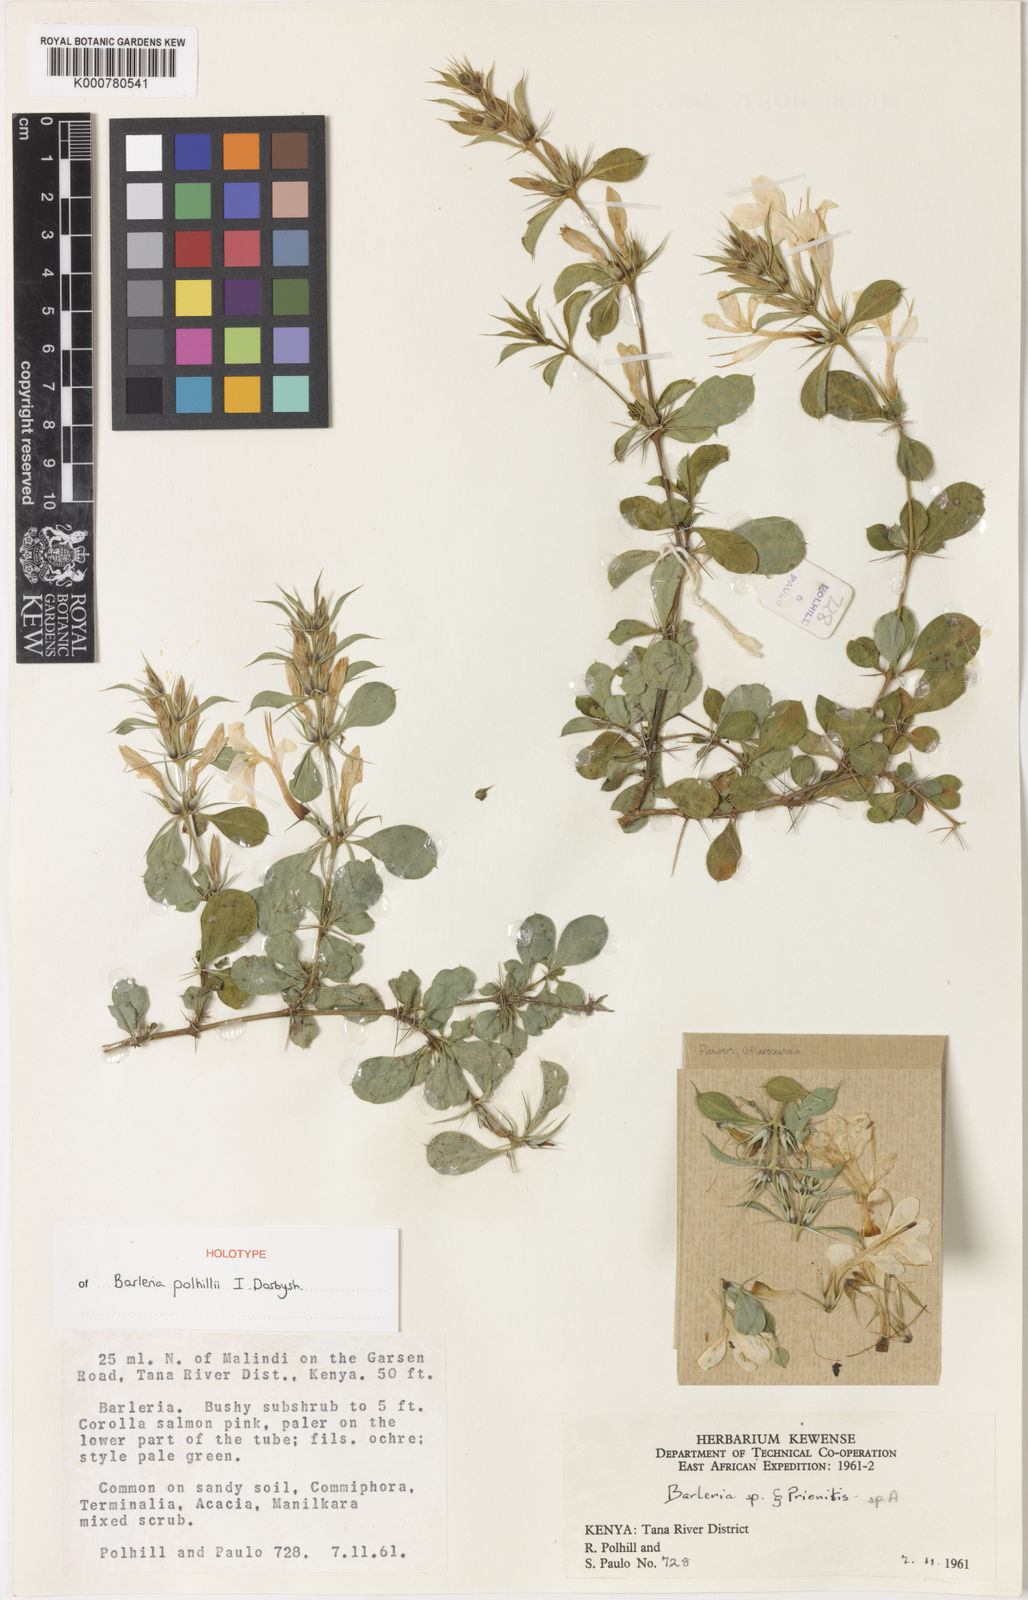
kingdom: Plantae
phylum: Tracheophyta
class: Magnoliopsida
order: Lamiales
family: Acanthaceae
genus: Barleria
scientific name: Barleria polhillii
